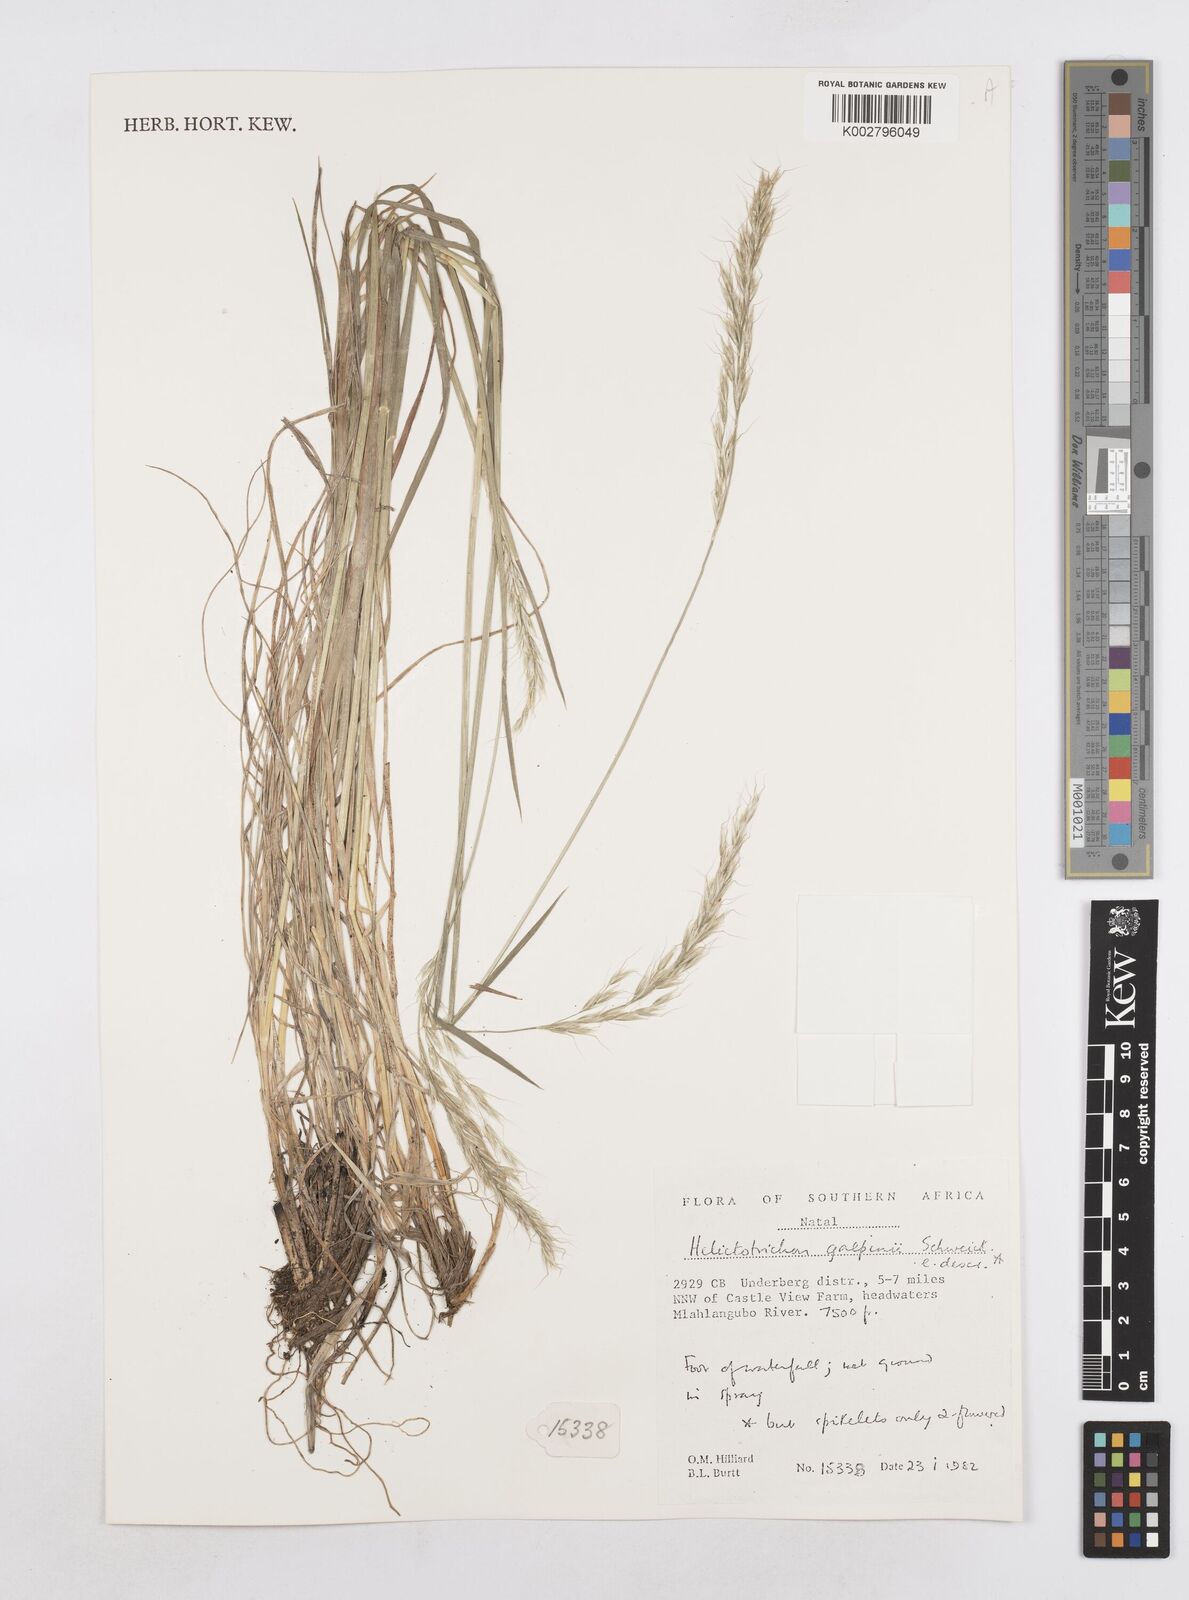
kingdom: Plantae
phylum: Tracheophyta
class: Liliopsida
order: Poales
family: Poaceae
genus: Trisetopsis
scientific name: Trisetopsis capensis
